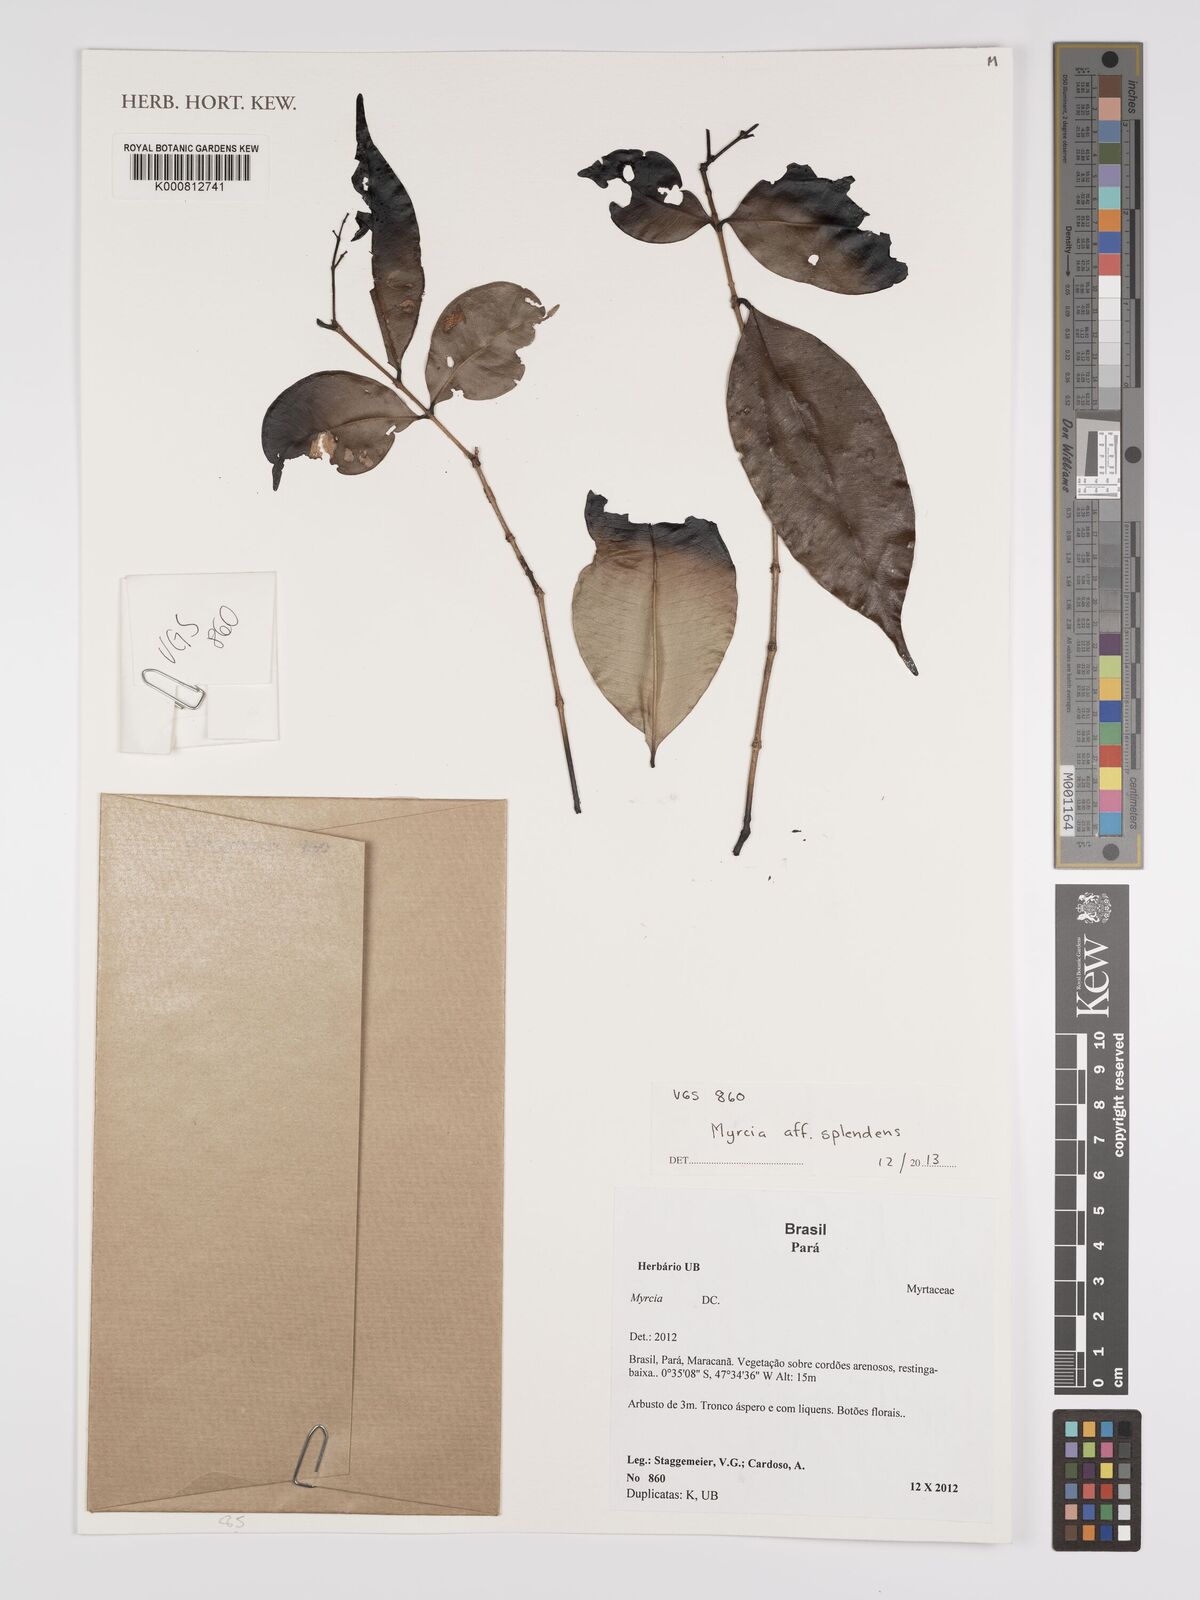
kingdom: Plantae
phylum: Tracheophyta
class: Magnoliopsida
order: Myrtales
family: Myrtaceae
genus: Myrcia
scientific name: Myrcia splendens
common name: Surinam cherry
